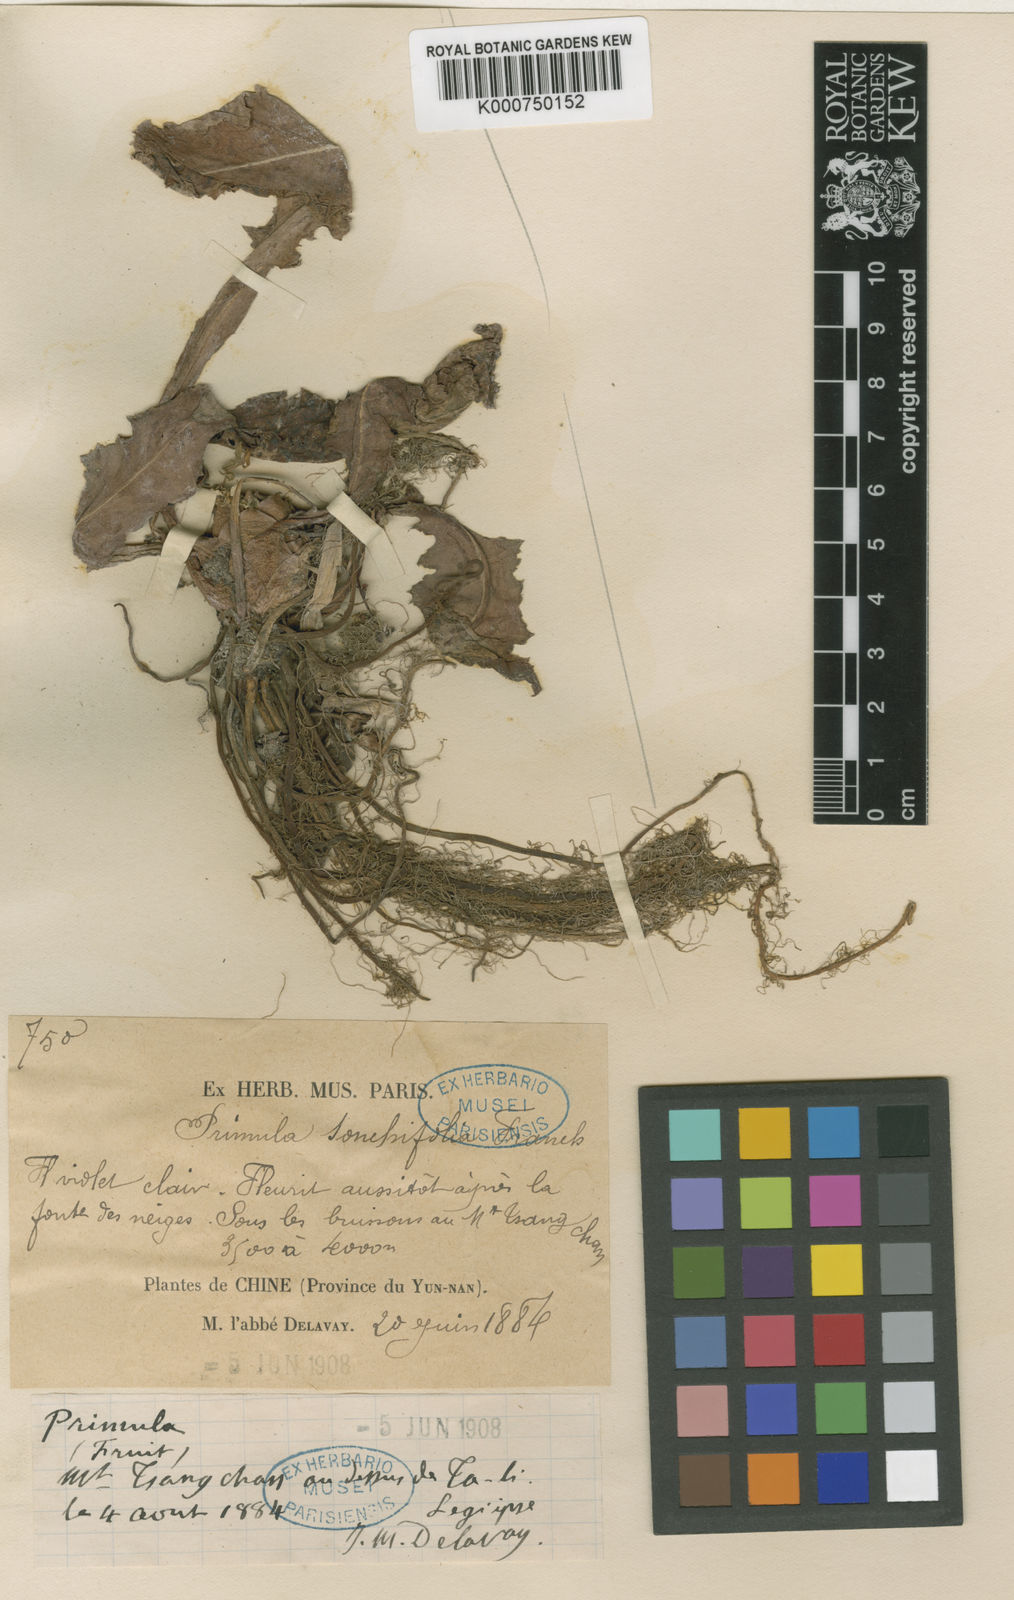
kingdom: Plantae
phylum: Tracheophyta
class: Magnoliopsida
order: Ericales
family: Primulaceae
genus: Primula
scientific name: Primula sonchifolia
